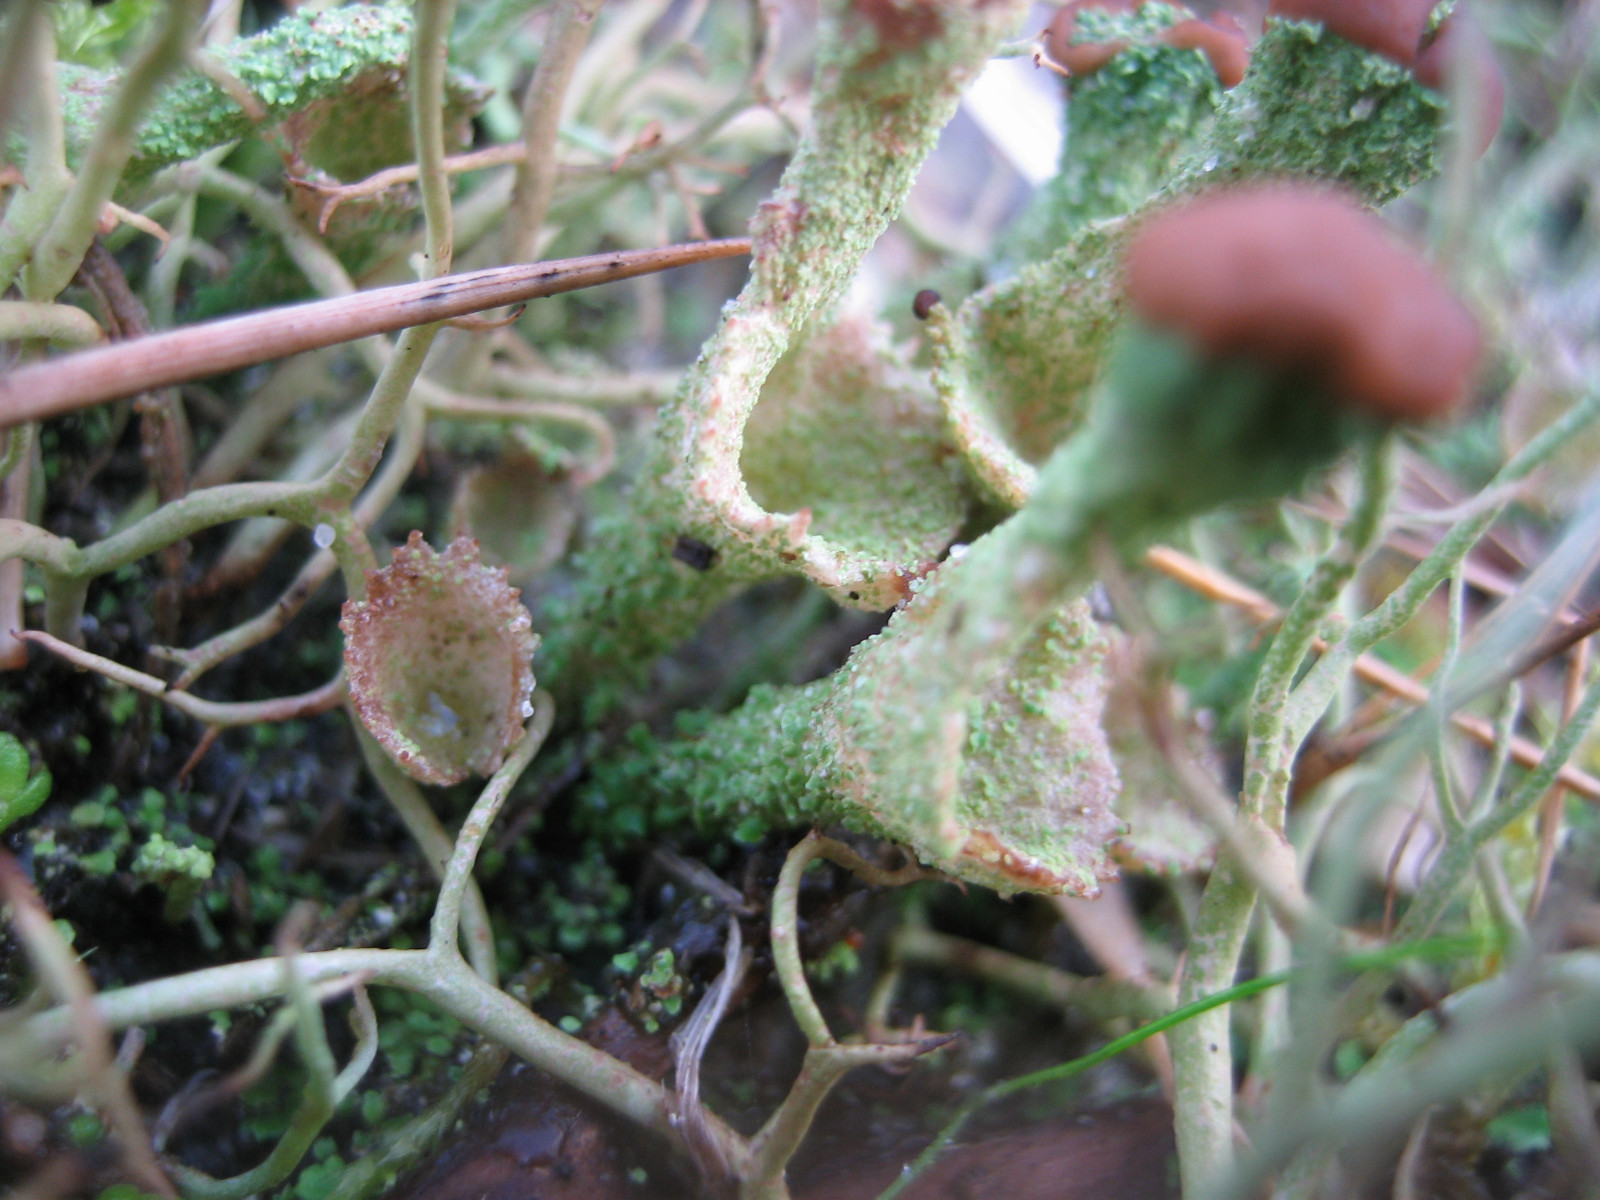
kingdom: Fungi
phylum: Ascomycota
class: Lecanoromycetes
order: Lecanorales
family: Cladoniaceae
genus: Cladonia
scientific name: Cladonia
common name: brungrøn bægerlav
